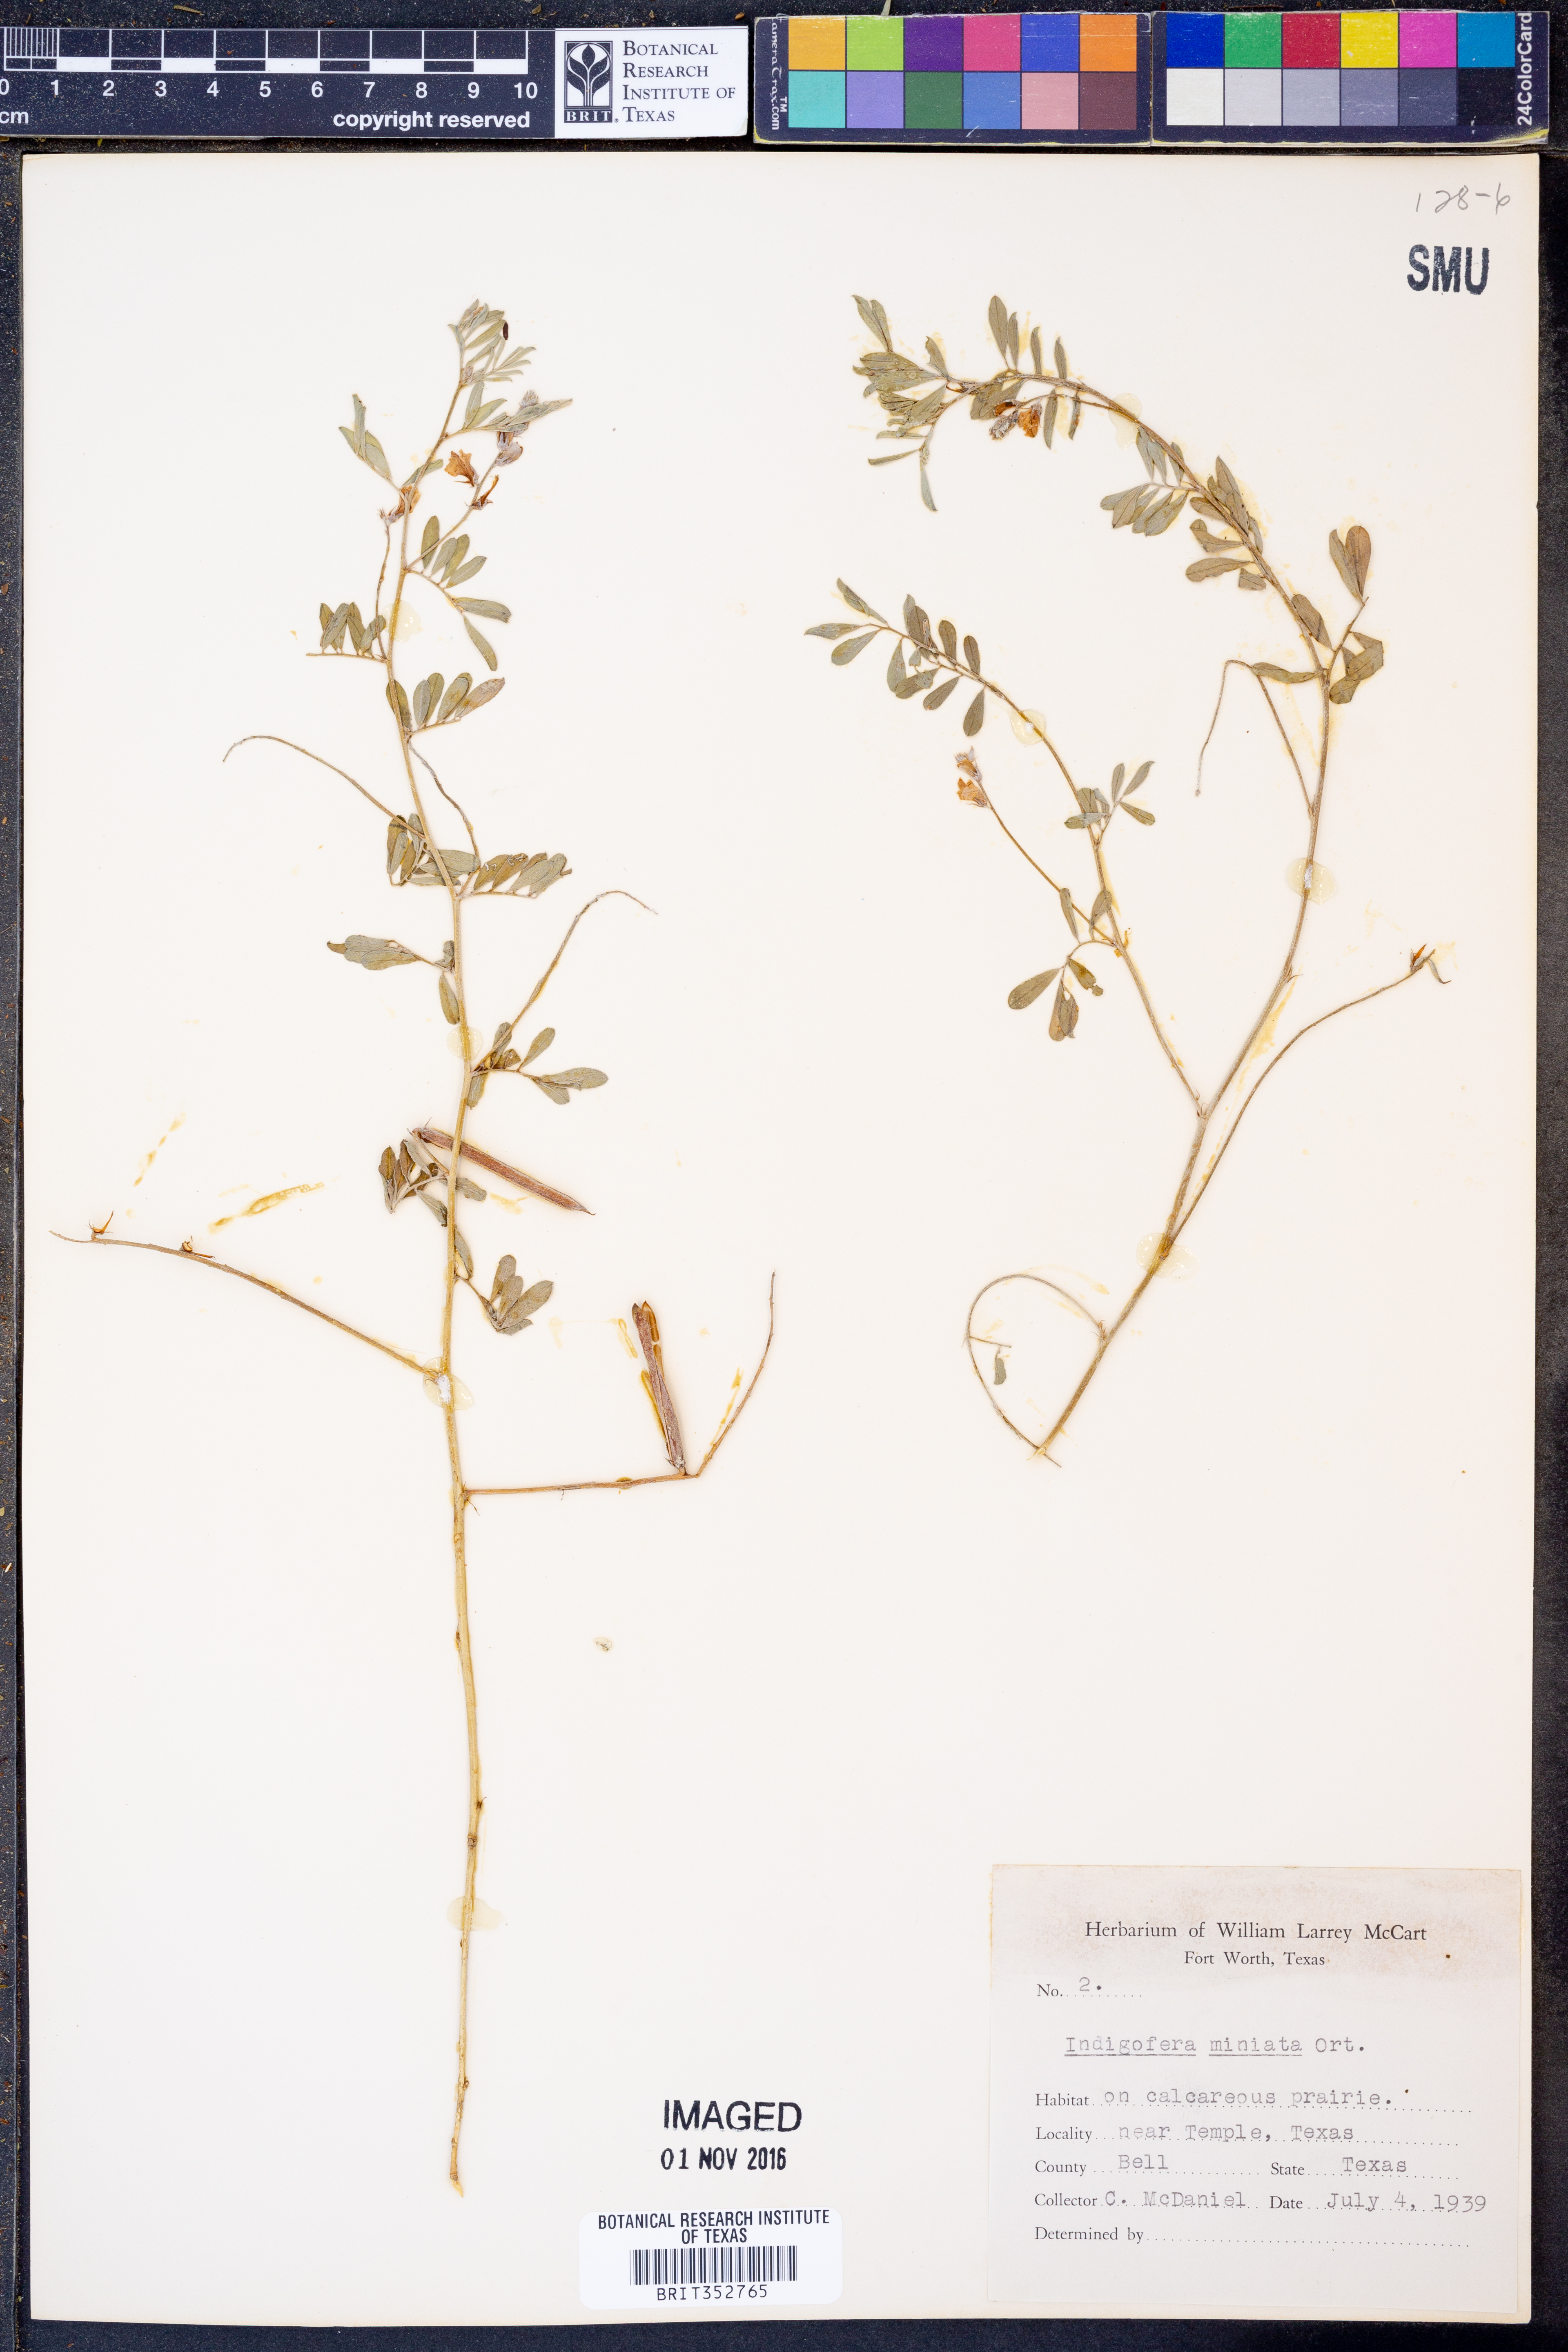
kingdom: Plantae
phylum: Tracheophyta
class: Magnoliopsida
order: Fabales
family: Fabaceae
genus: Indigofera
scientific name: Indigofera miniata
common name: Coast indigo
